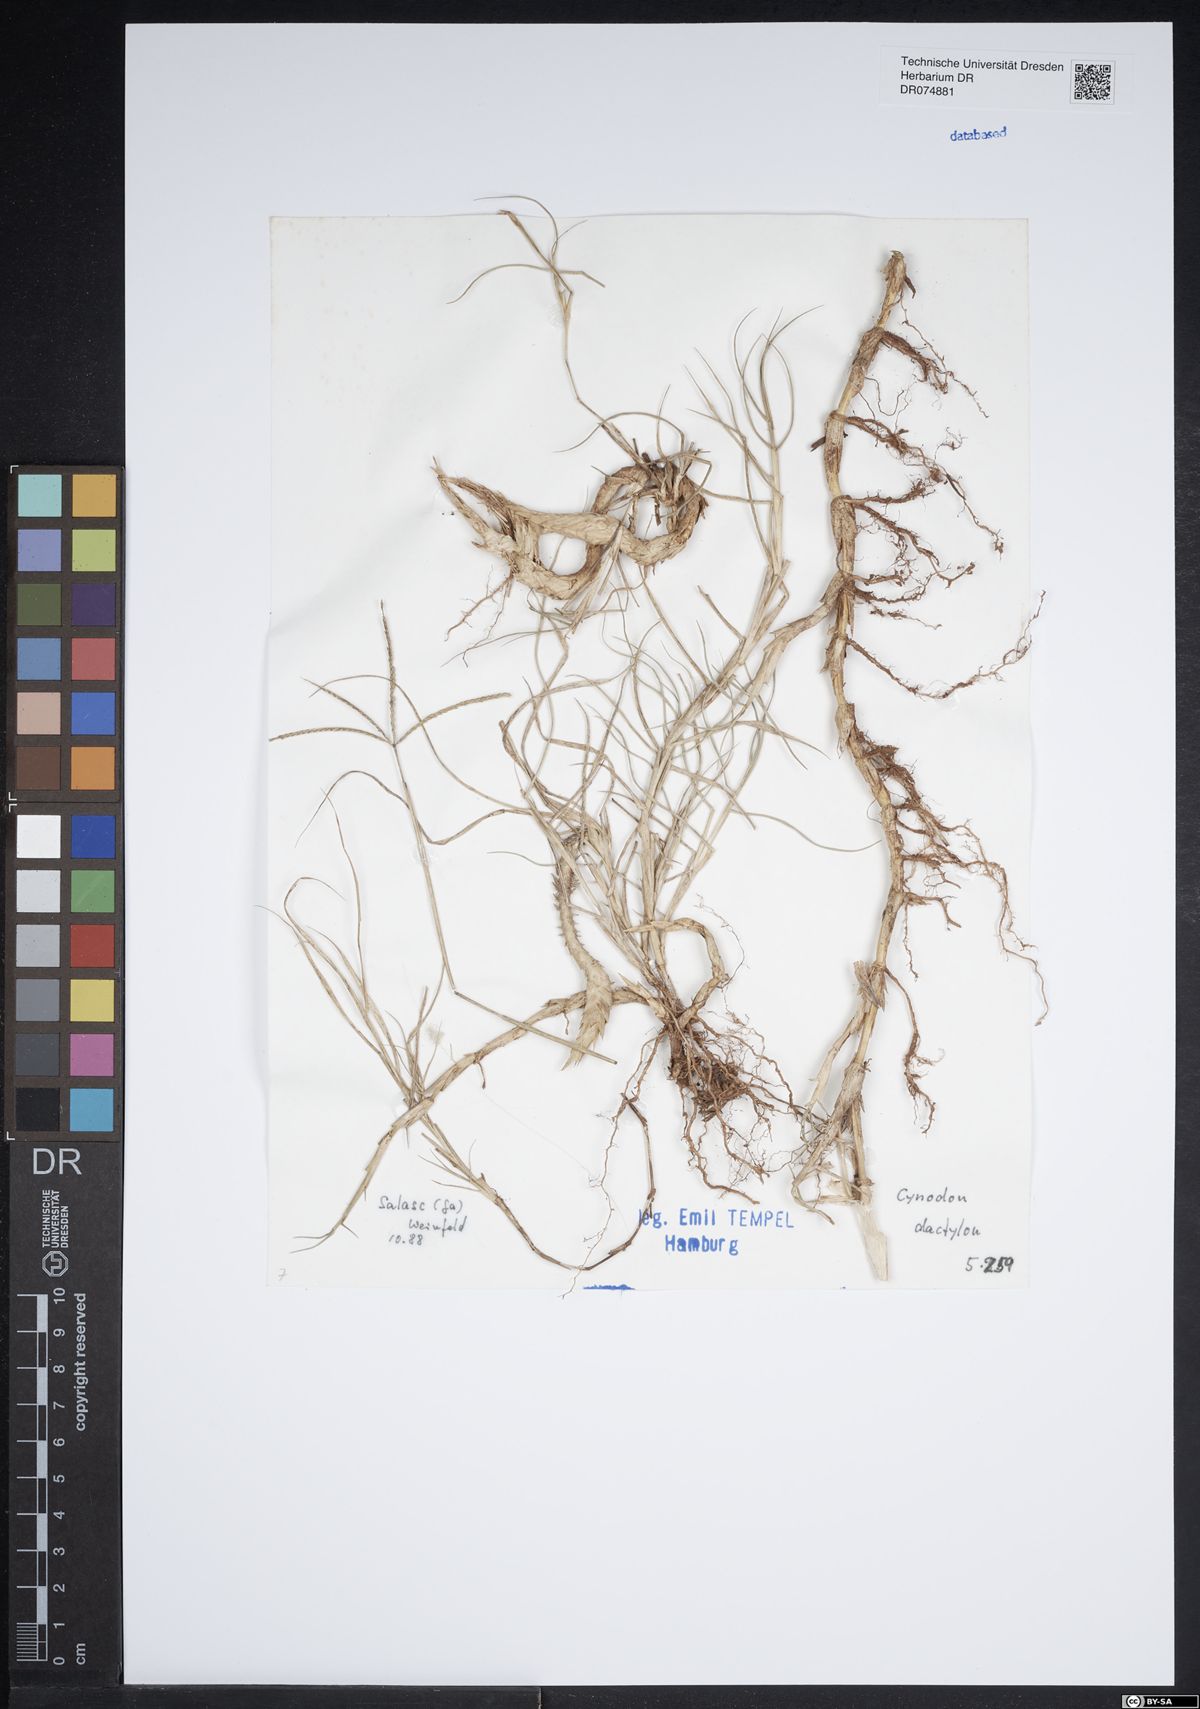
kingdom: Plantae
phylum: Tracheophyta
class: Liliopsida
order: Poales
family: Poaceae
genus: Cynodon
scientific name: Cynodon dactylon
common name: Bermuda grass
